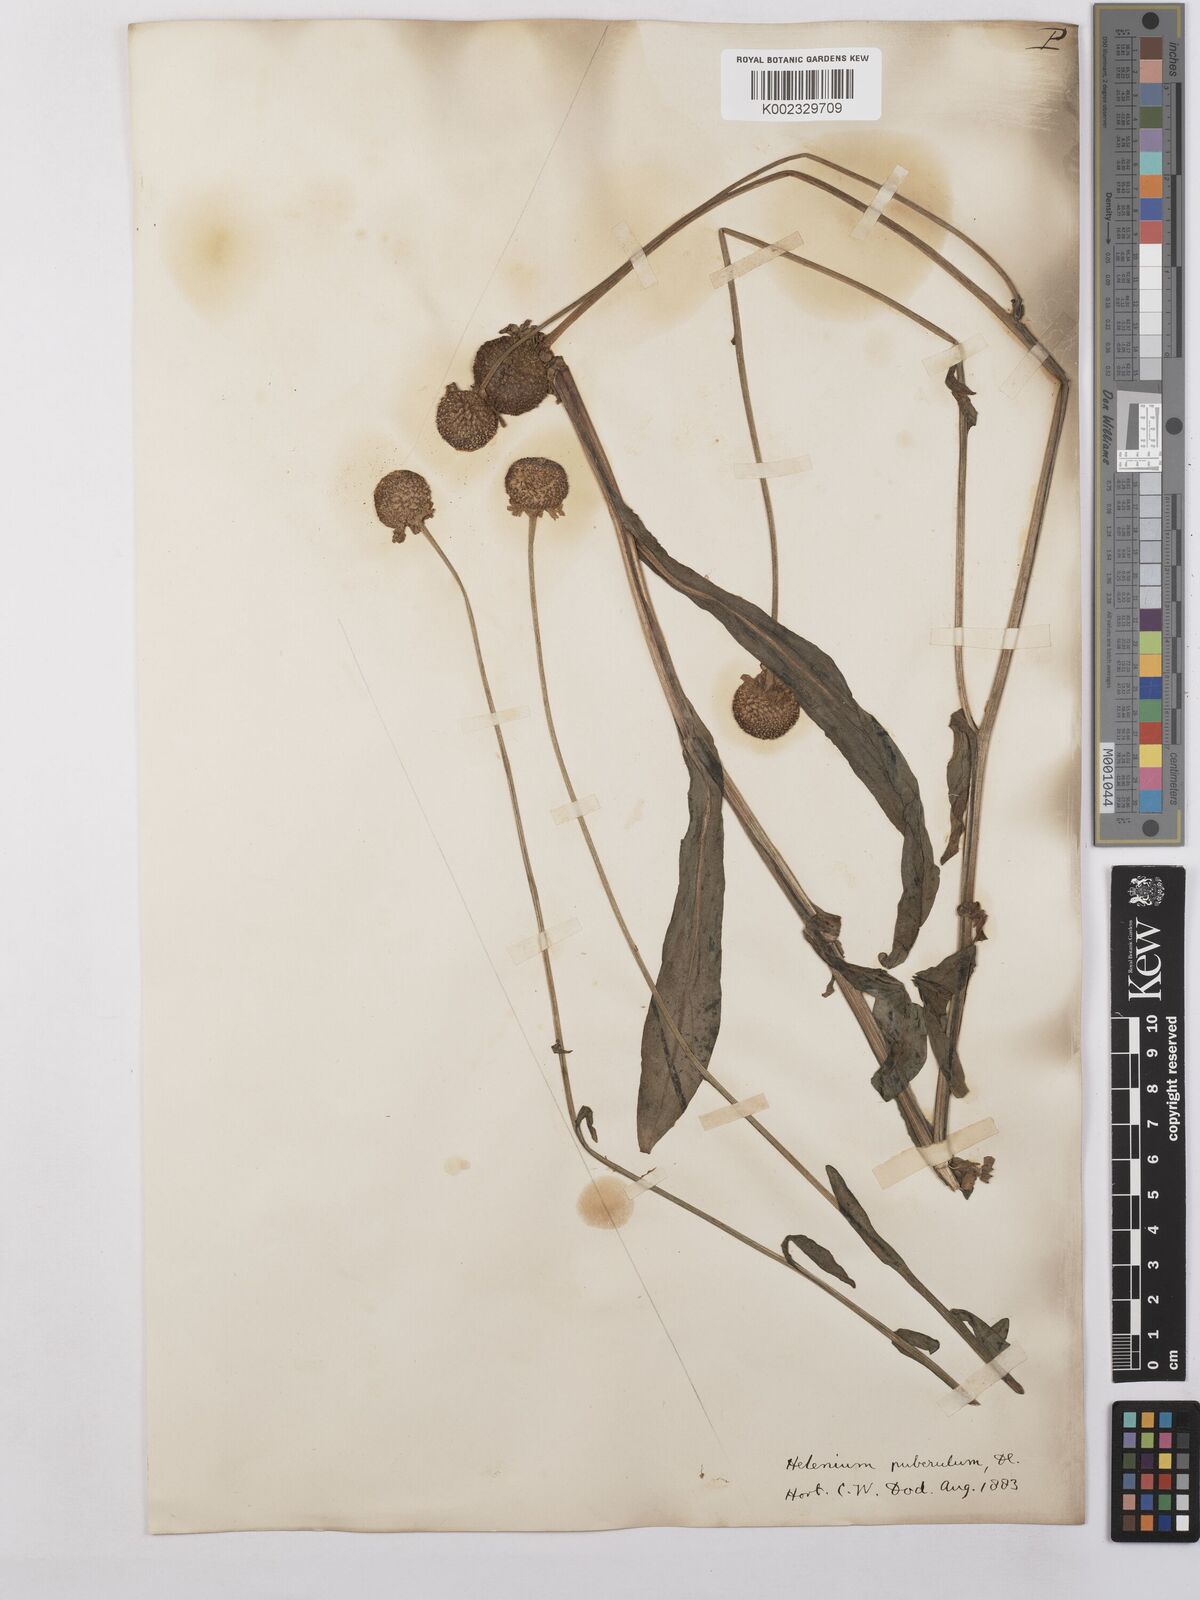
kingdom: Plantae
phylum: Tracheophyta
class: Magnoliopsida
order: Asterales
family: Asteraceae
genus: Helenium
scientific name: Helenium puberulum
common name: Sneezewort
